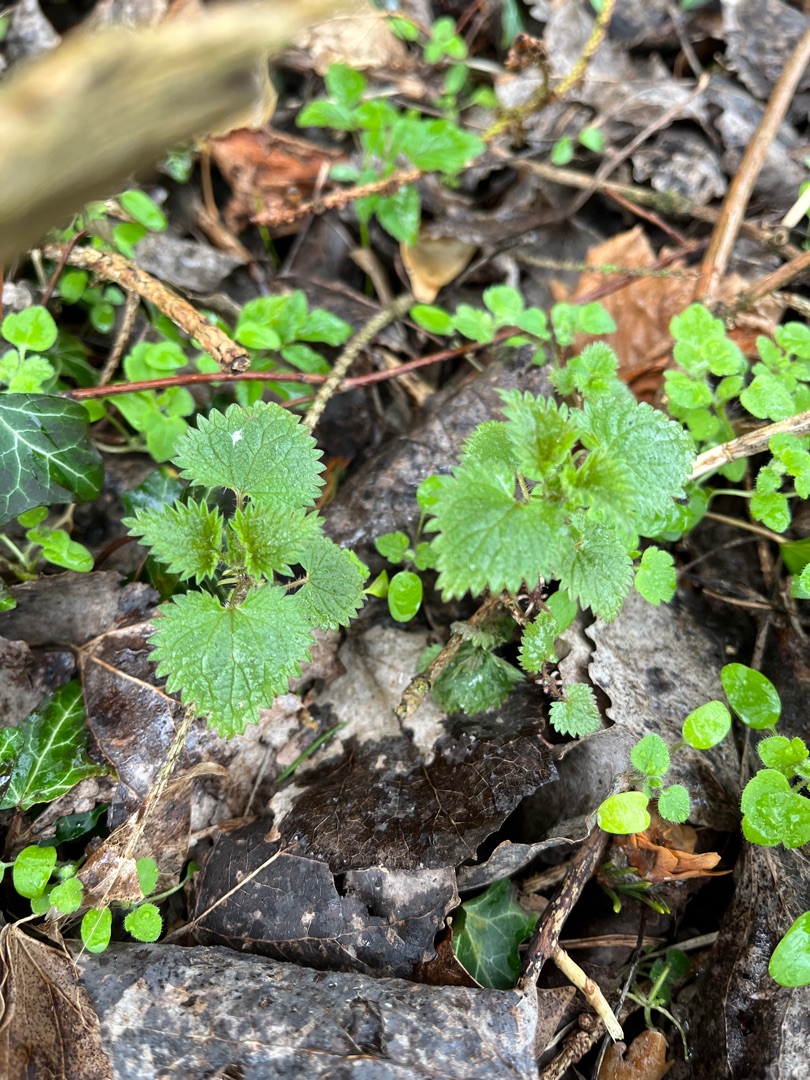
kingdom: Plantae
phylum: Tracheophyta
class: Magnoliopsida
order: Rosales
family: Urticaceae
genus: Urtica
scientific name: Urtica dioica
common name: Stor nælde
